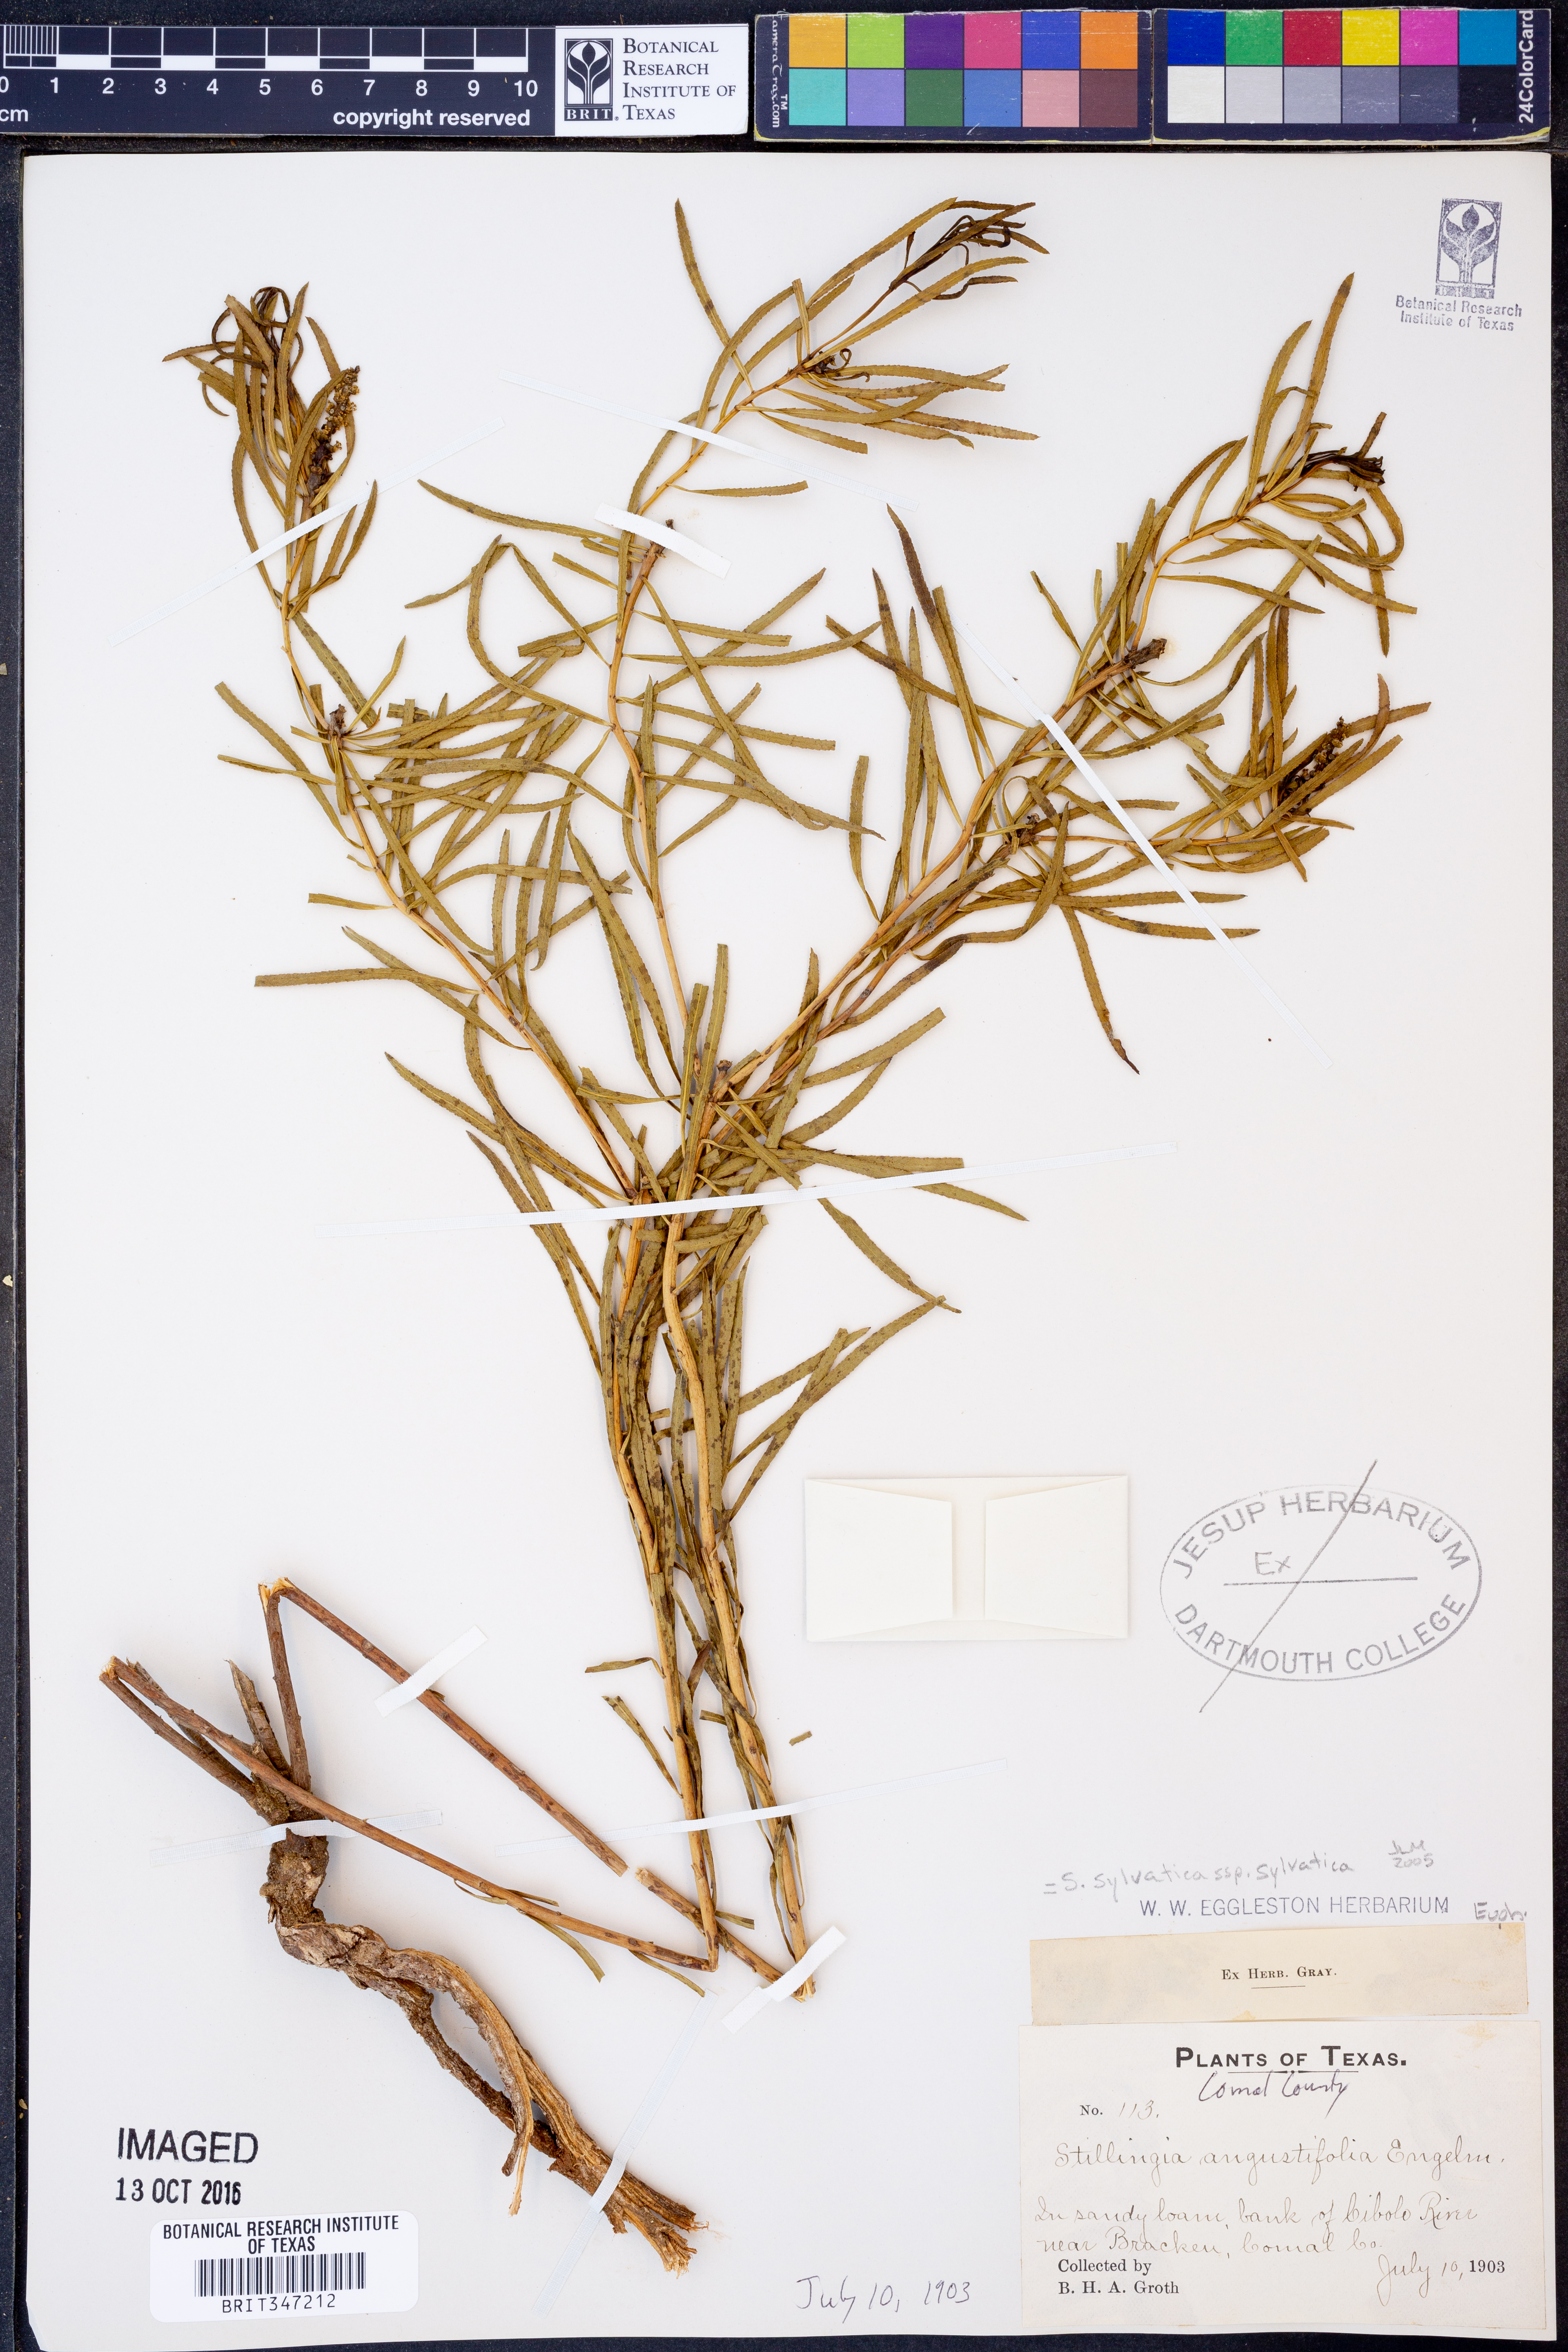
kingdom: Plantae
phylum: Tracheophyta
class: Magnoliopsida
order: Malpighiales
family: Euphorbiaceae
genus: Stillingia
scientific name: Stillingia sylvatica
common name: Queen's-delight
